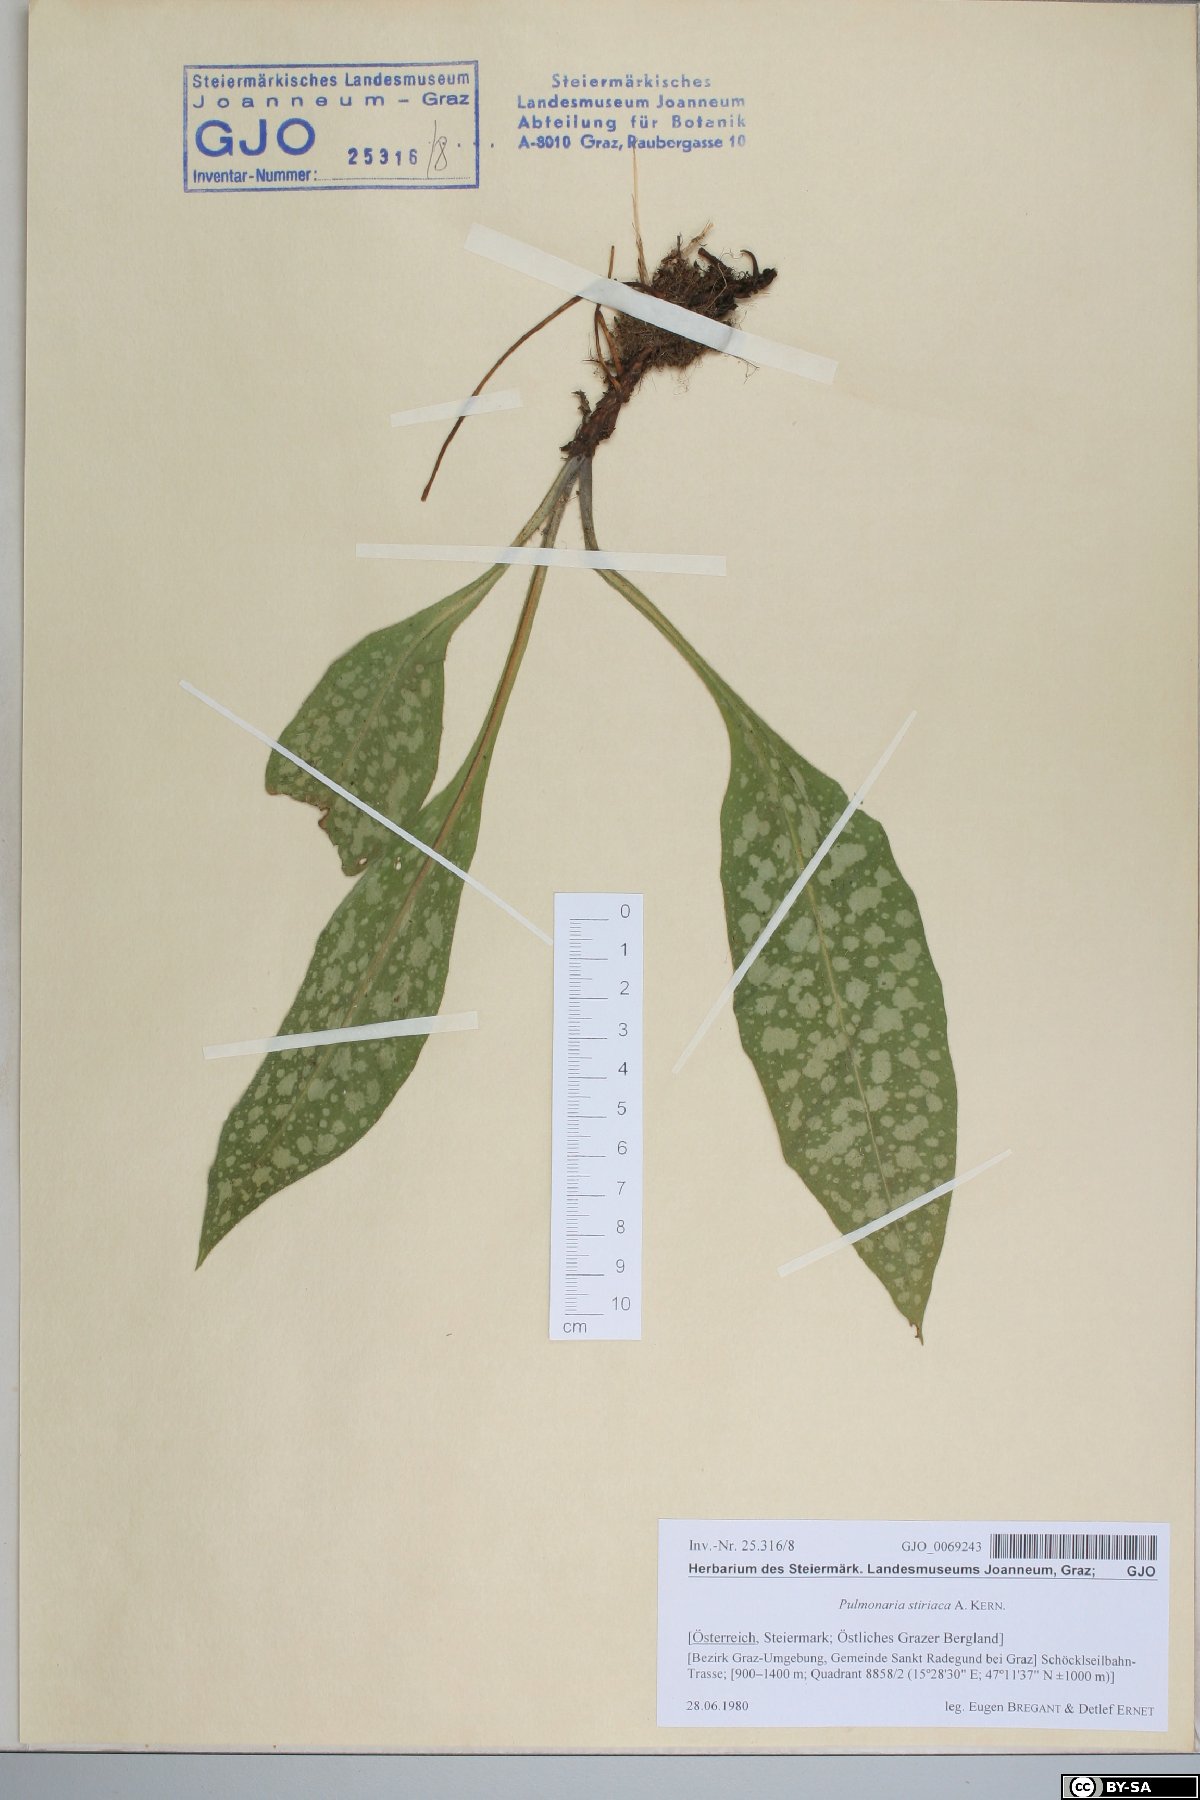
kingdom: Plantae
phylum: Tracheophyta
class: Magnoliopsida
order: Boraginales
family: Boraginaceae
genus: Pulmonaria
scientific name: Pulmonaria stiriaca
